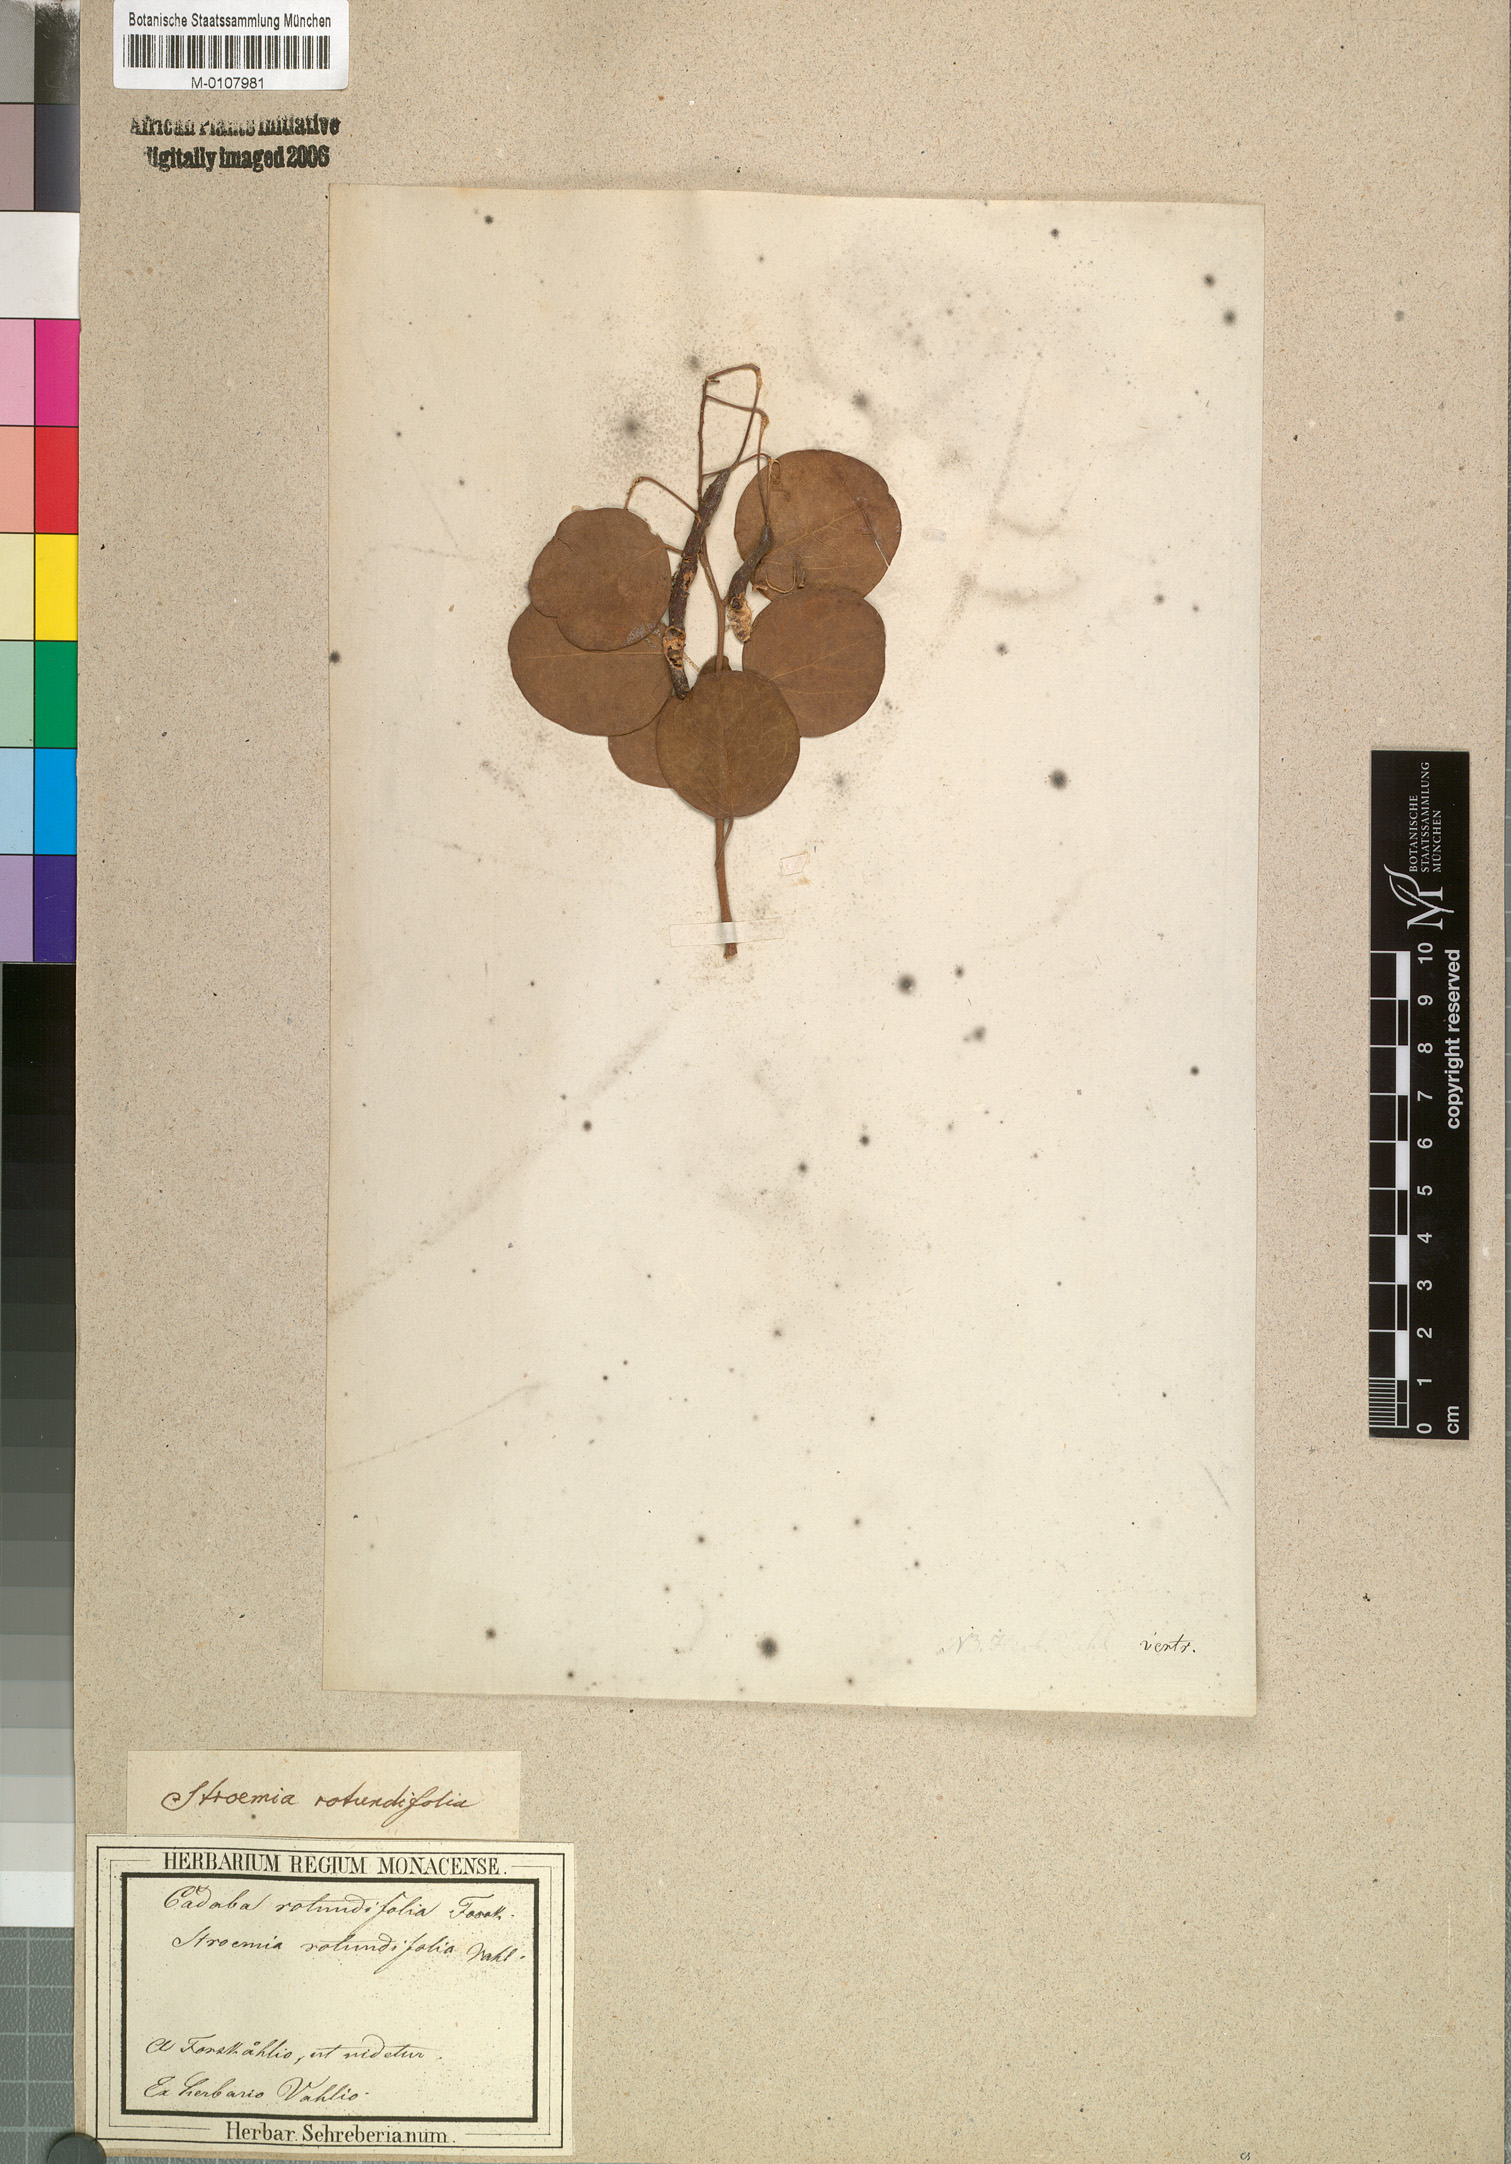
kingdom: Plantae
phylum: Tracheophyta
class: Magnoliopsida
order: Brassicales
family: Capparaceae
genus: Cadaba
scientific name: Cadaba rotundifolia
